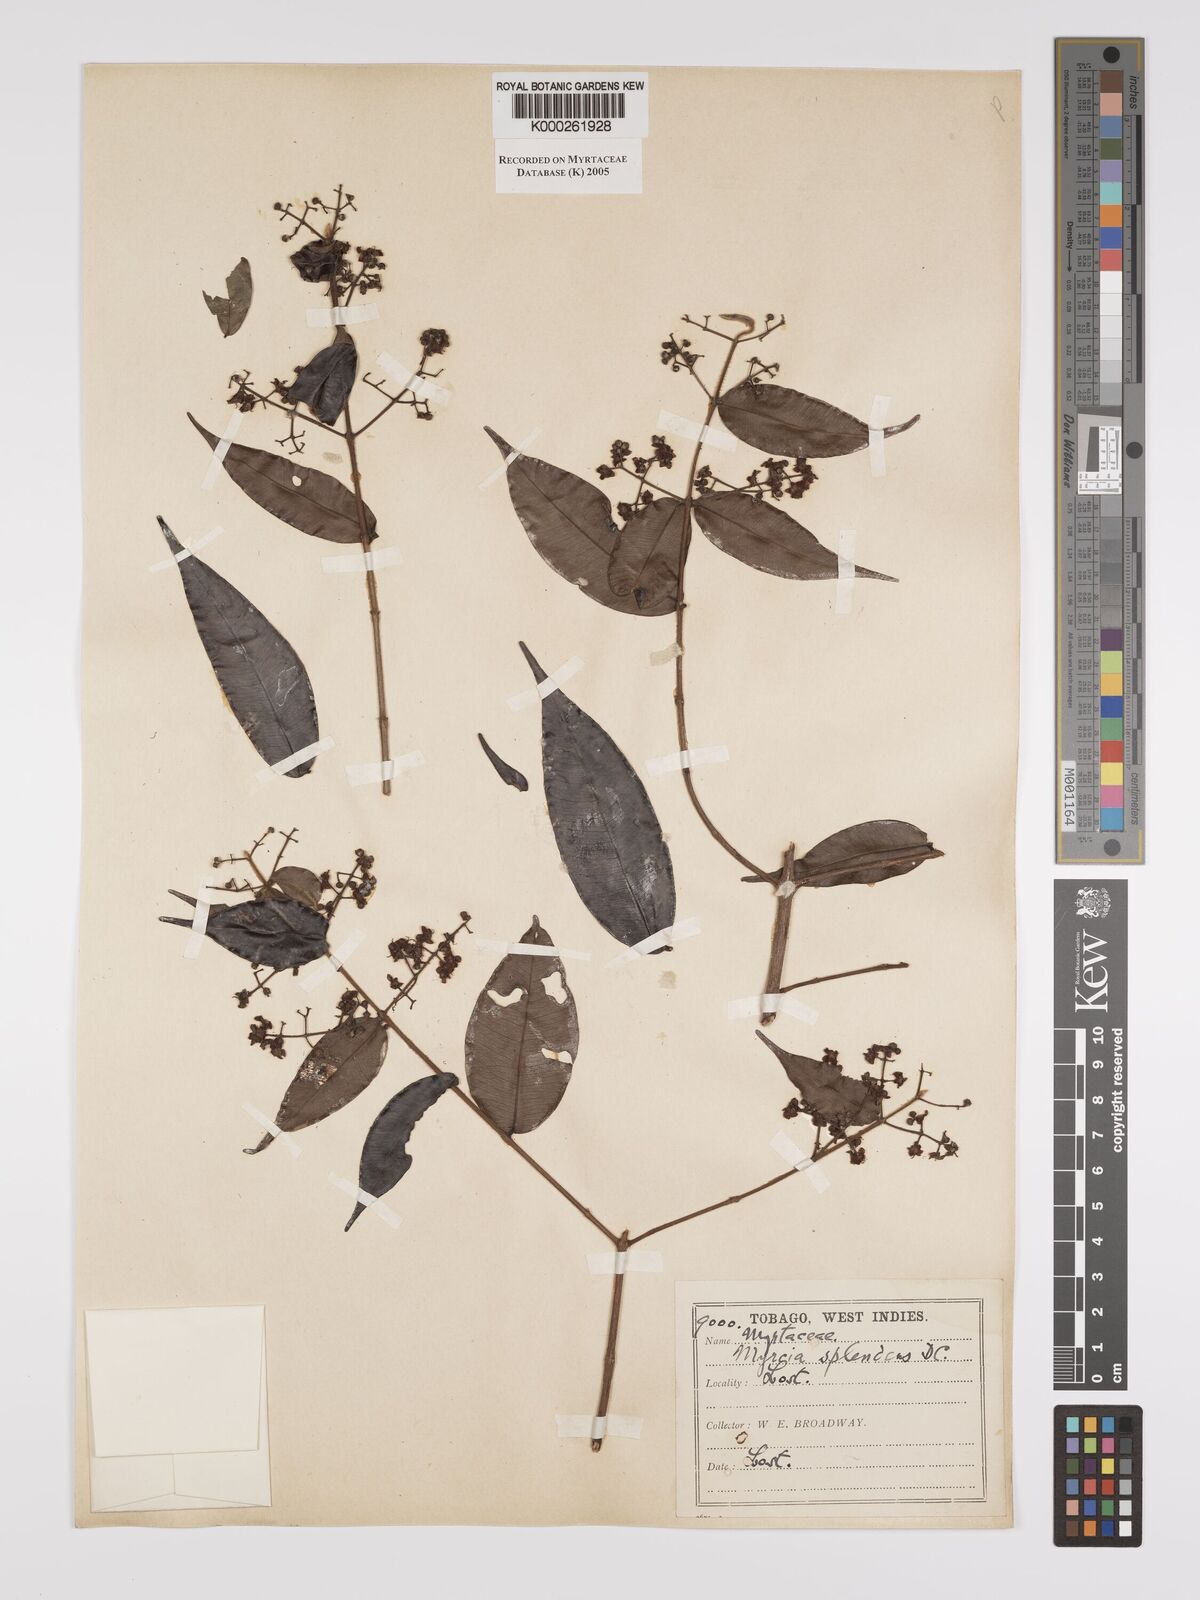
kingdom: Plantae
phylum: Tracheophyta
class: Magnoliopsida
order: Myrtales
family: Myrtaceae
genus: Myrcia
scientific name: Myrcia splendens
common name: Surinam cherry
